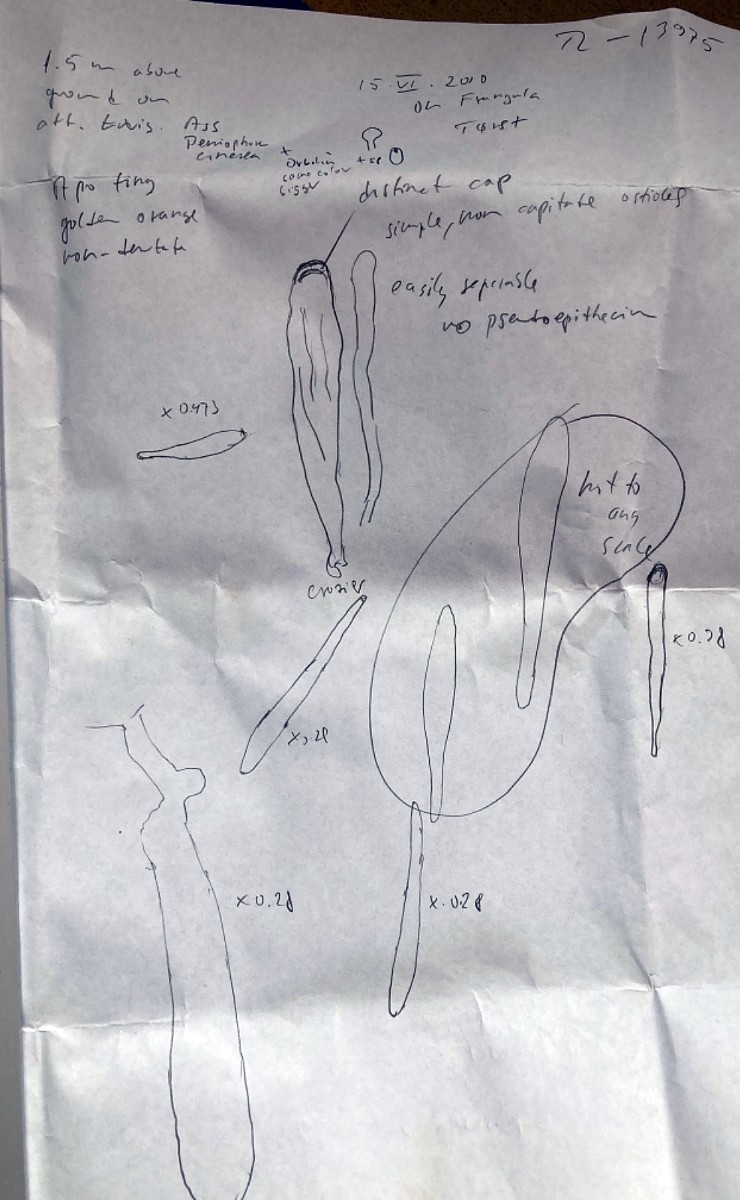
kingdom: Fungi
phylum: Ascomycota
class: Orbiliomycetes
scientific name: Orbiliomycetes
